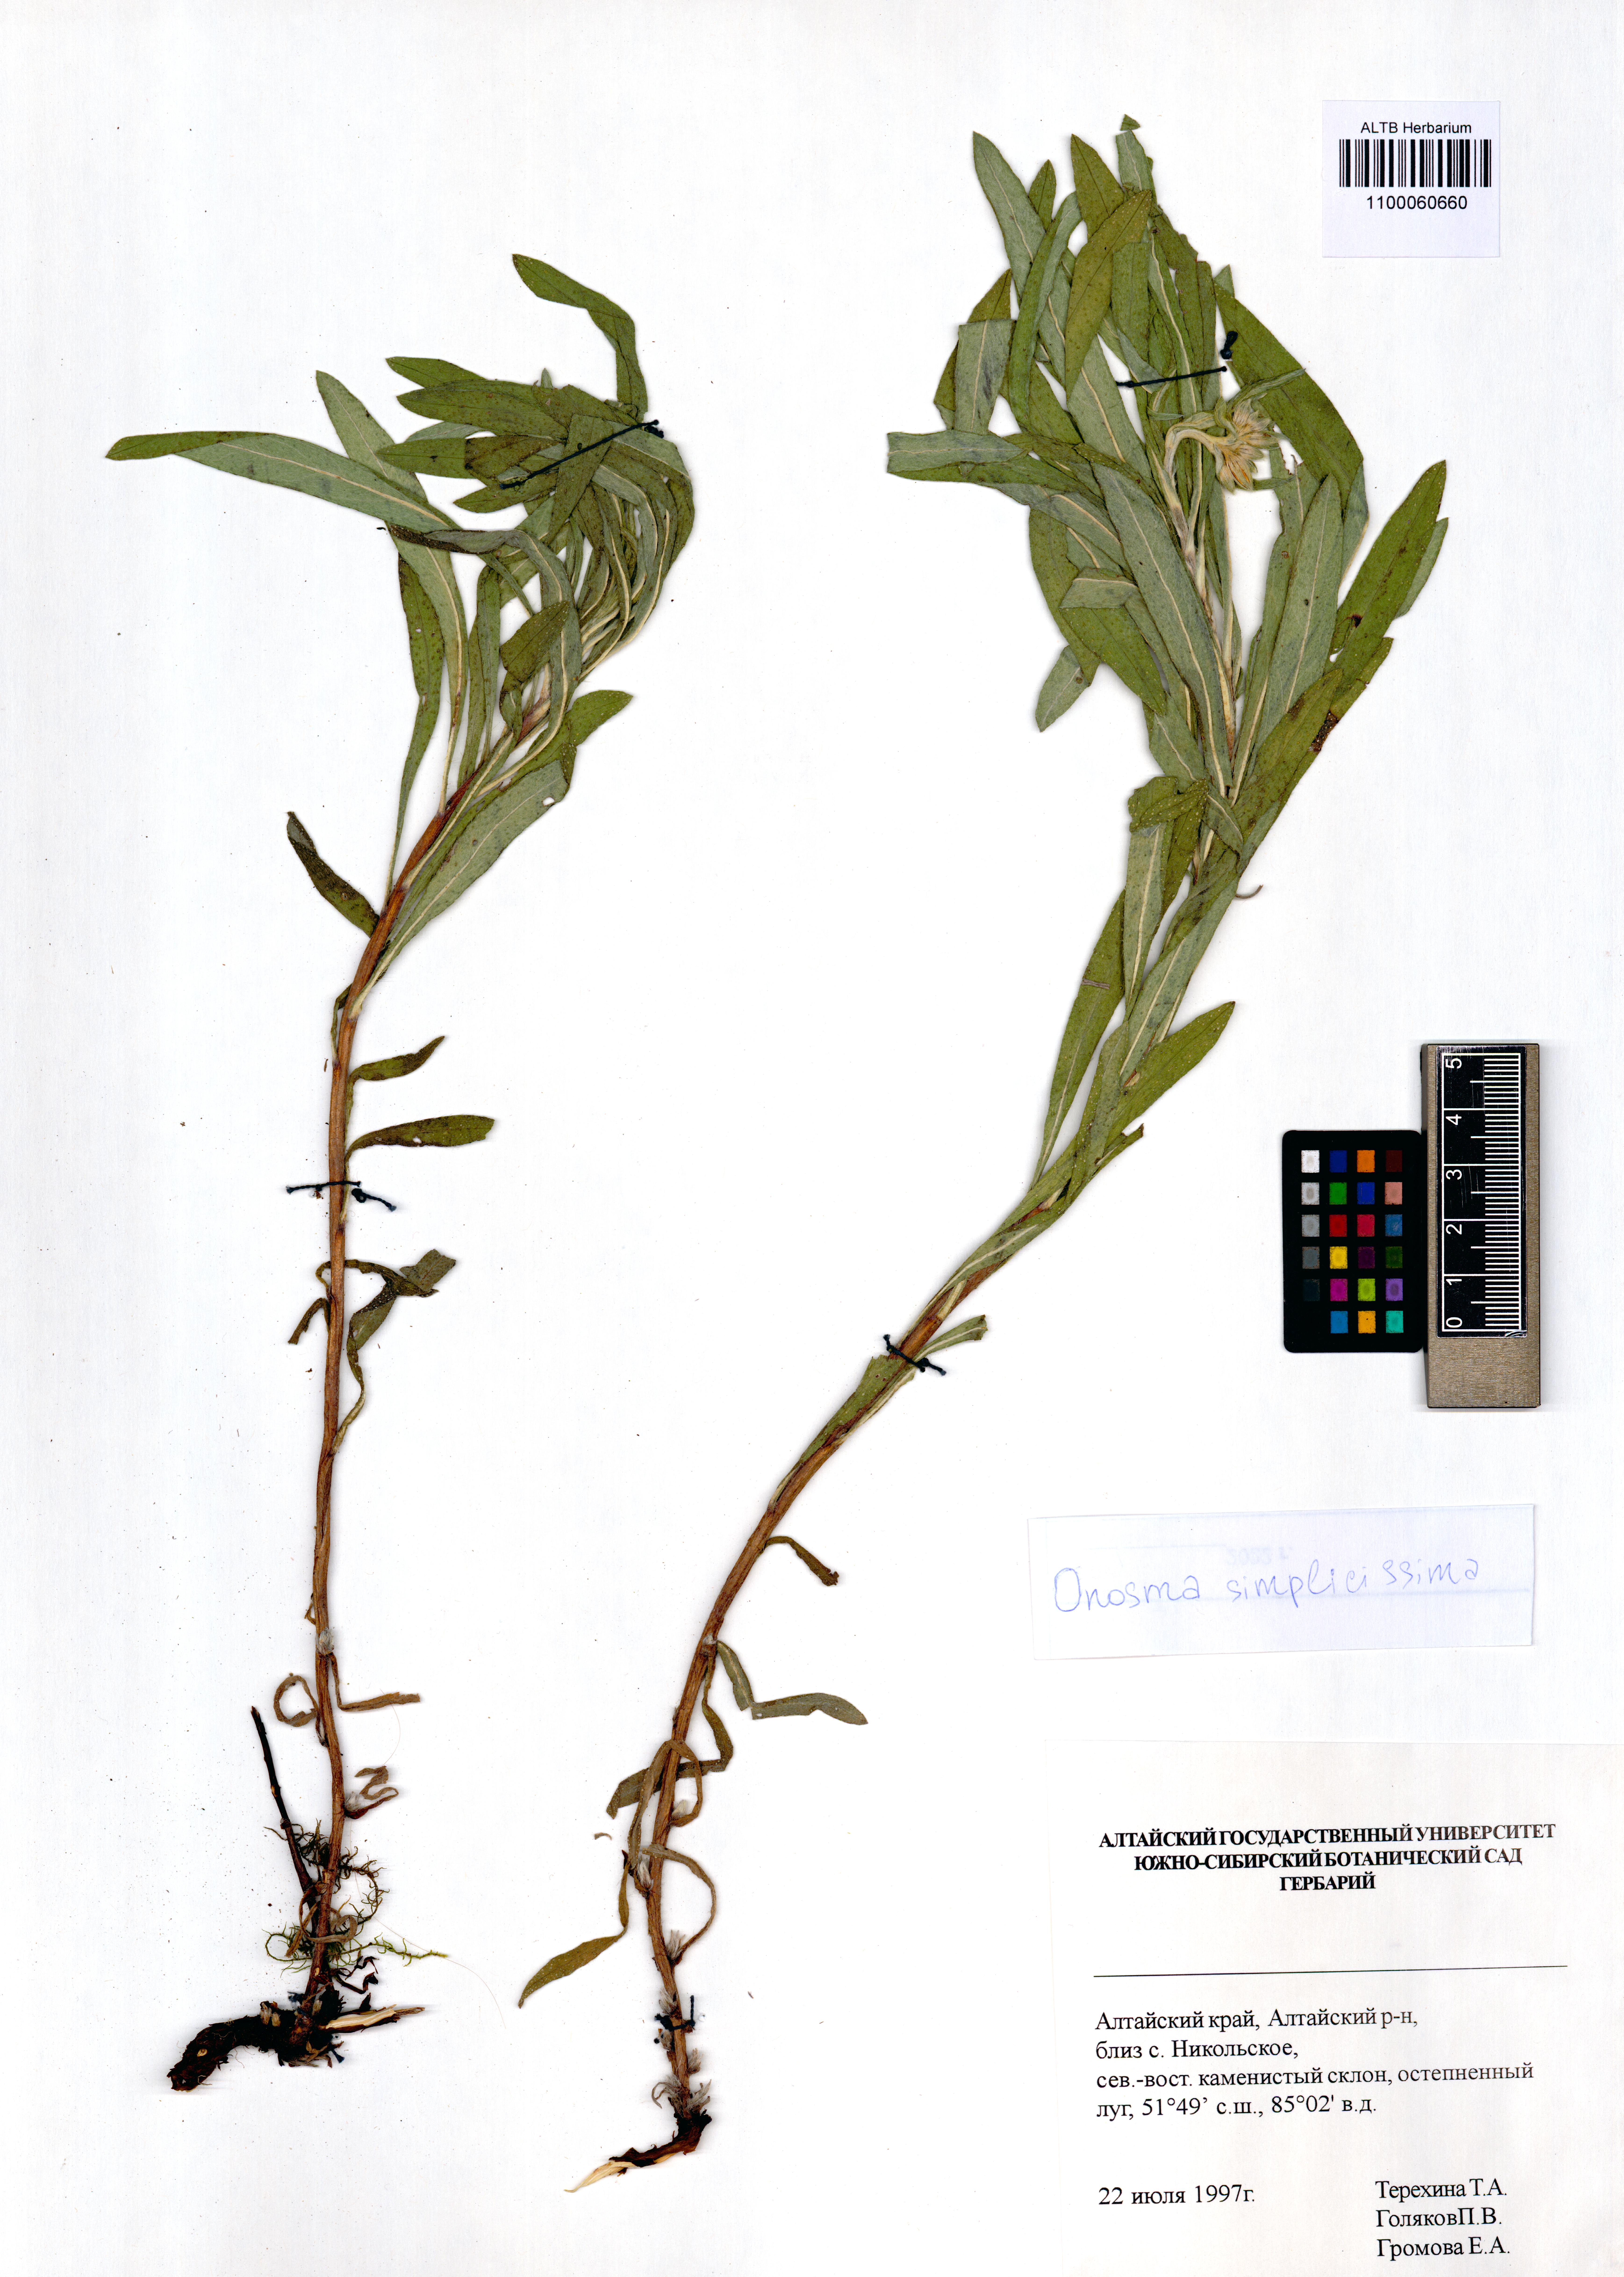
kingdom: Plantae
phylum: Tracheophyta
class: Magnoliopsida
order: Boraginales
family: Boraginaceae
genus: Onosma
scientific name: Onosma simplicissima
